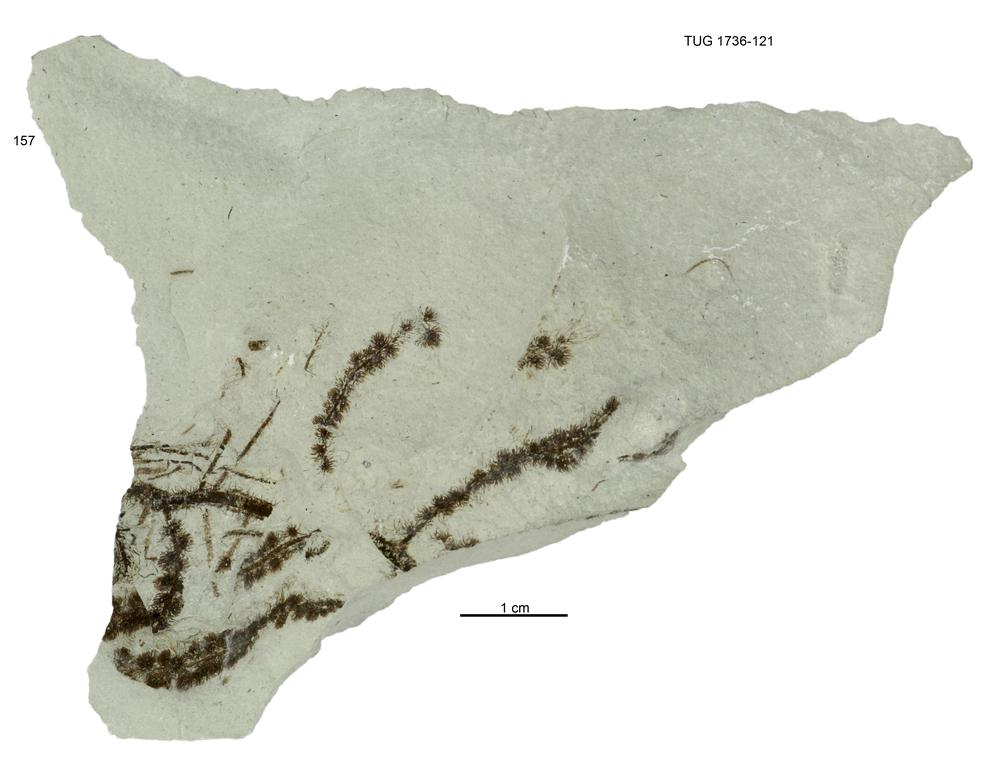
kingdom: Animalia
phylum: Echinodermata
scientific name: Echinodermata
